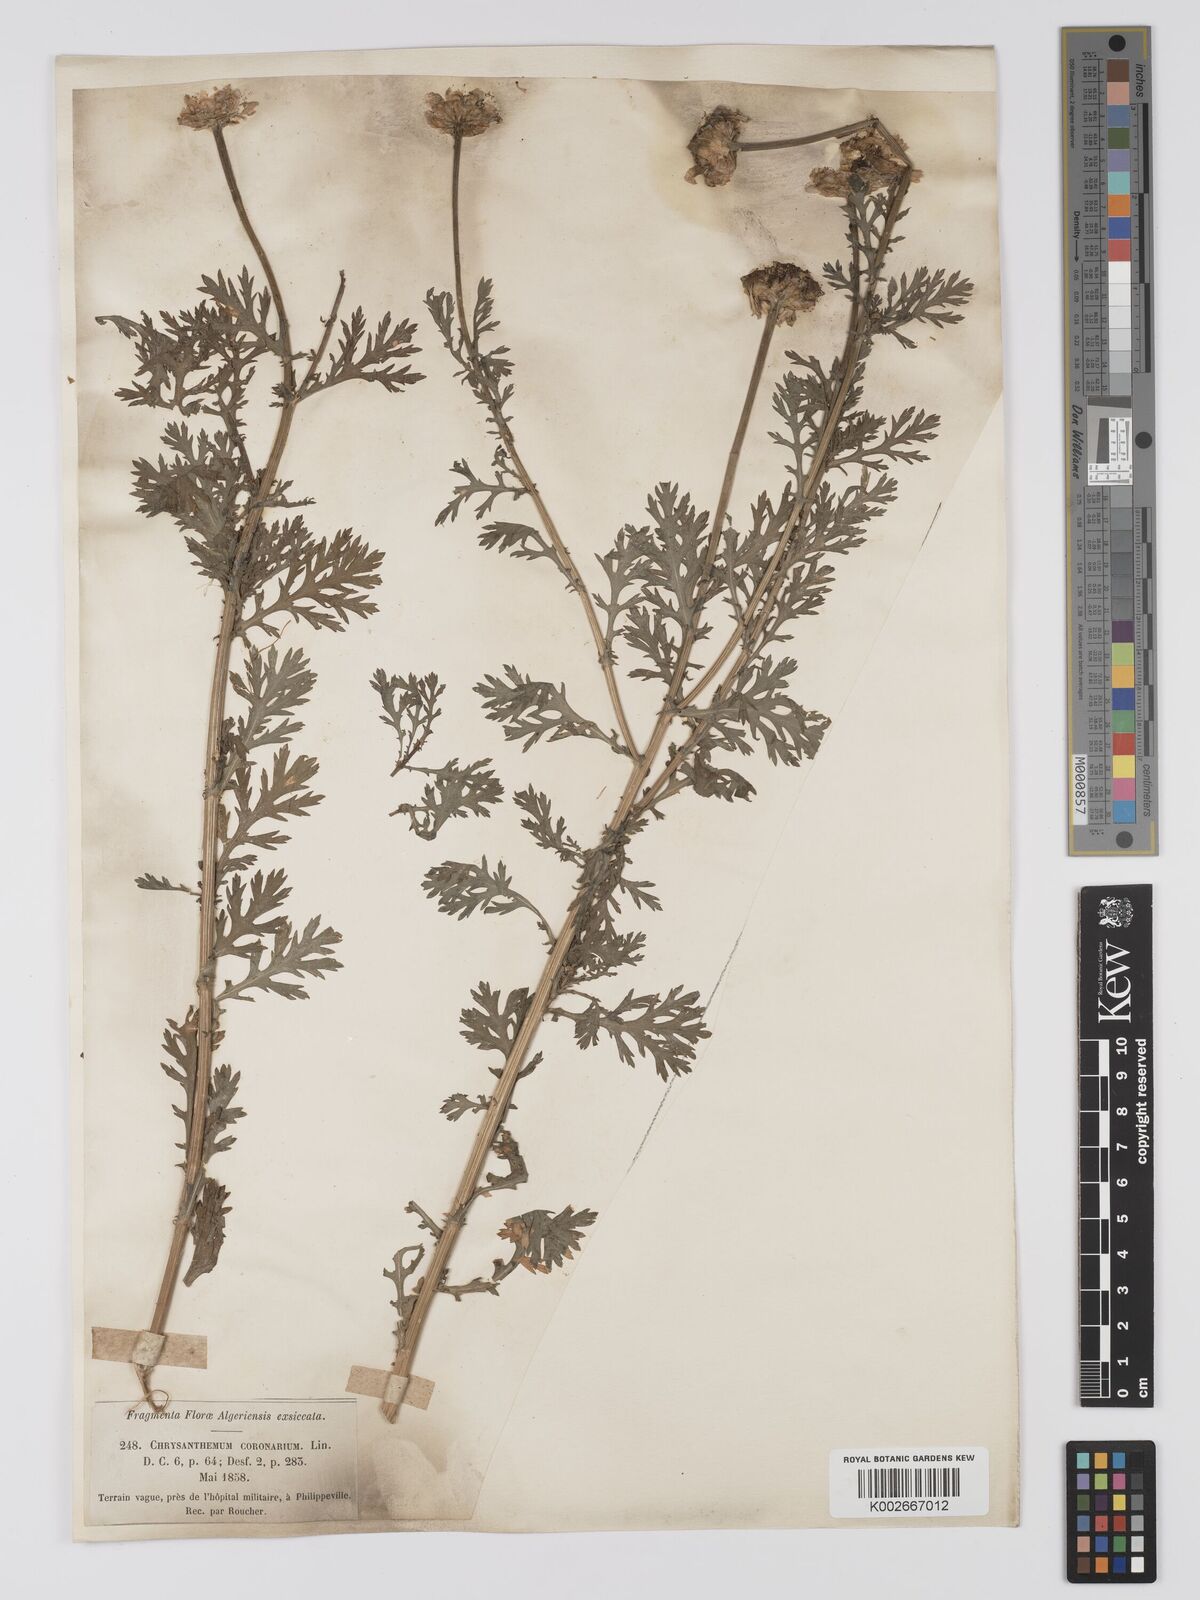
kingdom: Plantae
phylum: Tracheophyta
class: Magnoliopsida
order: Asterales
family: Asteraceae
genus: Glebionis
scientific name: Glebionis
